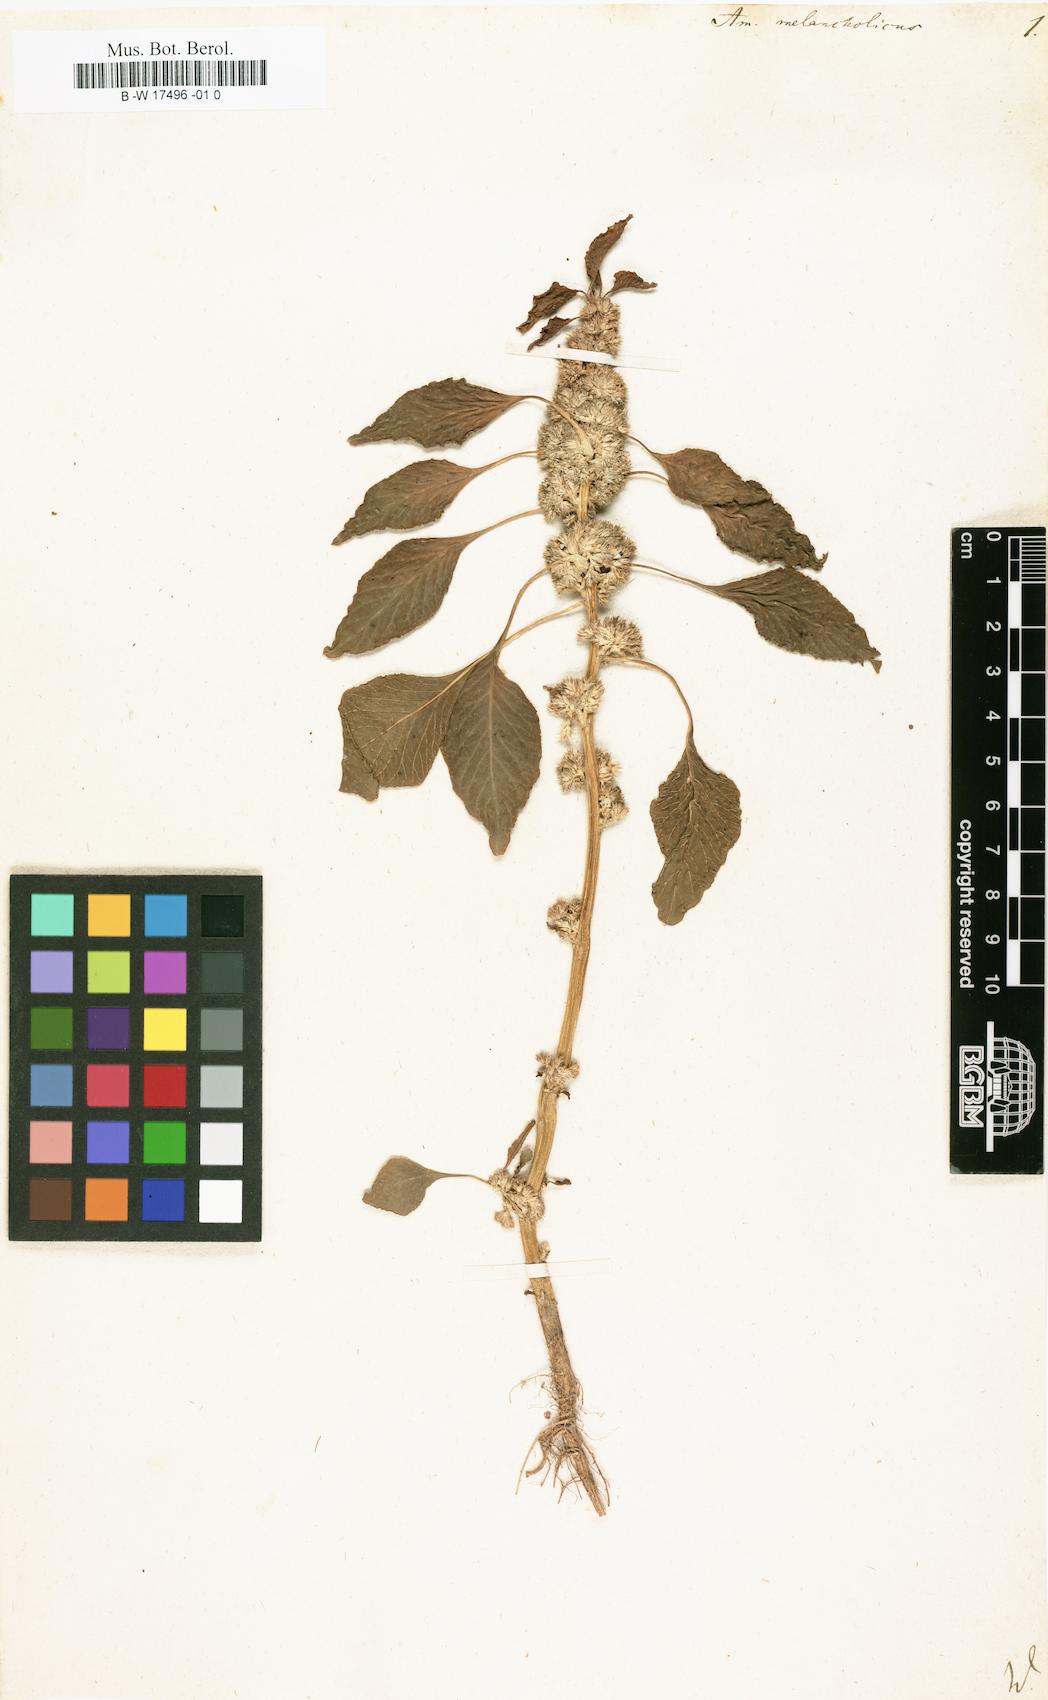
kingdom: Plantae
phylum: Tracheophyta
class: Magnoliopsida
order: Caryophyllales
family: Amaranthaceae
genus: Amaranthus
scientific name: Amaranthus tricolor
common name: Joseph's-coat
